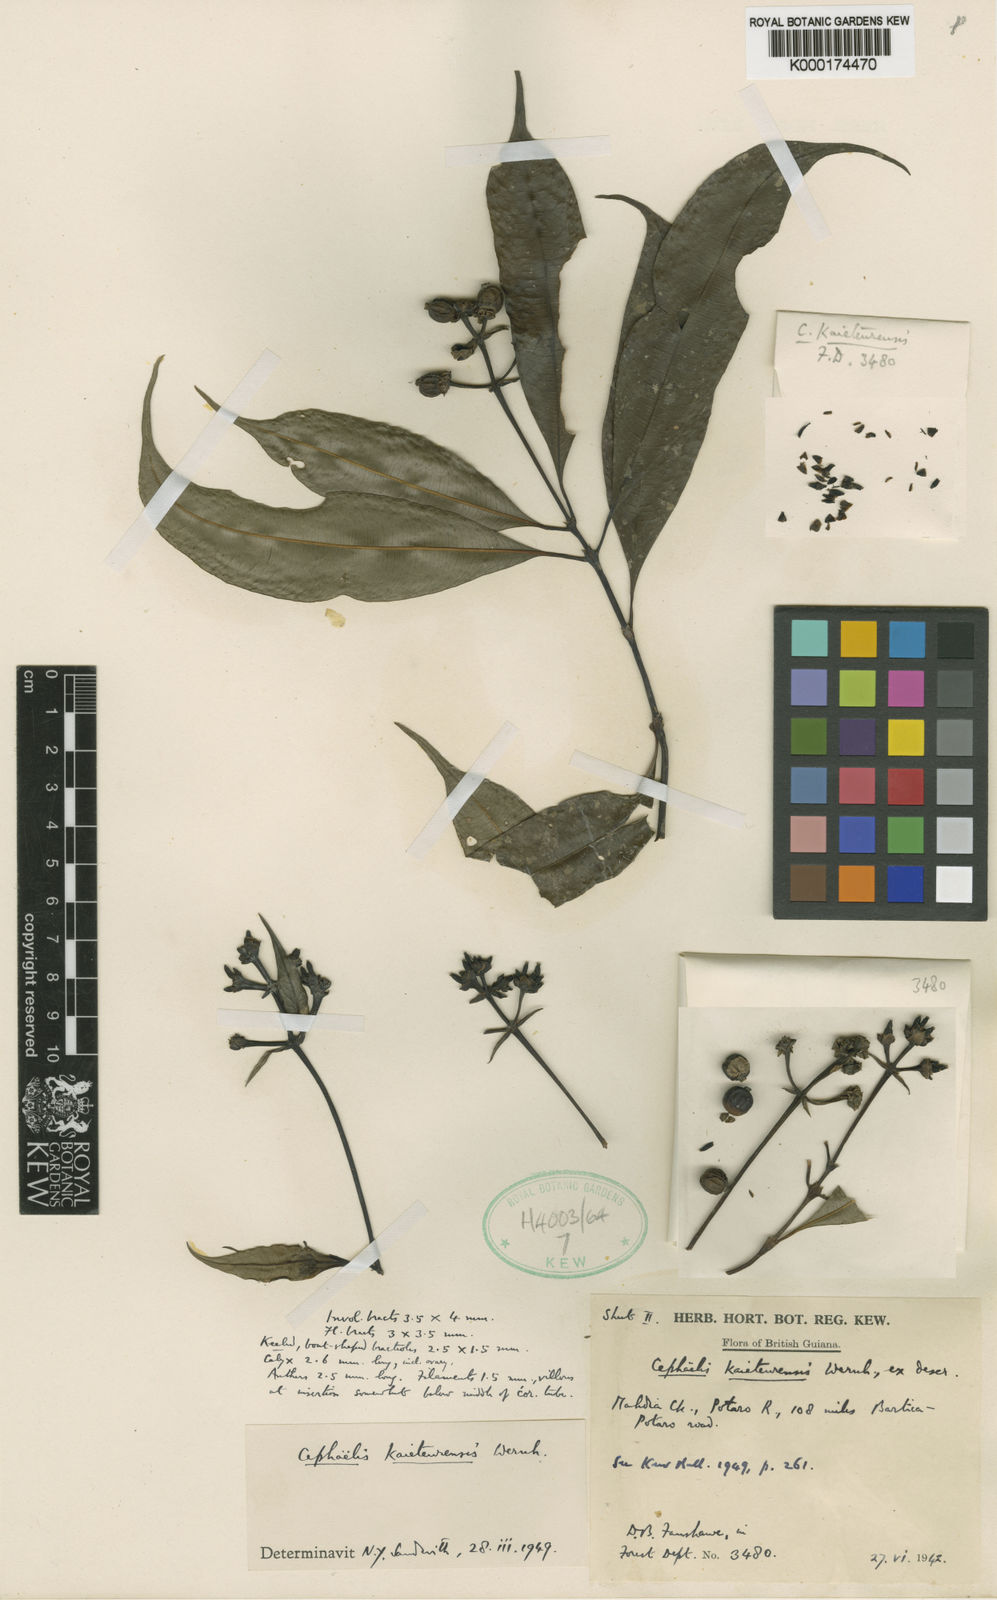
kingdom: Plantae
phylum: Tracheophyta
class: Magnoliopsida
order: Gentianales
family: Rubiaceae
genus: Palicourea
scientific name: Palicourea kaieteurensis
